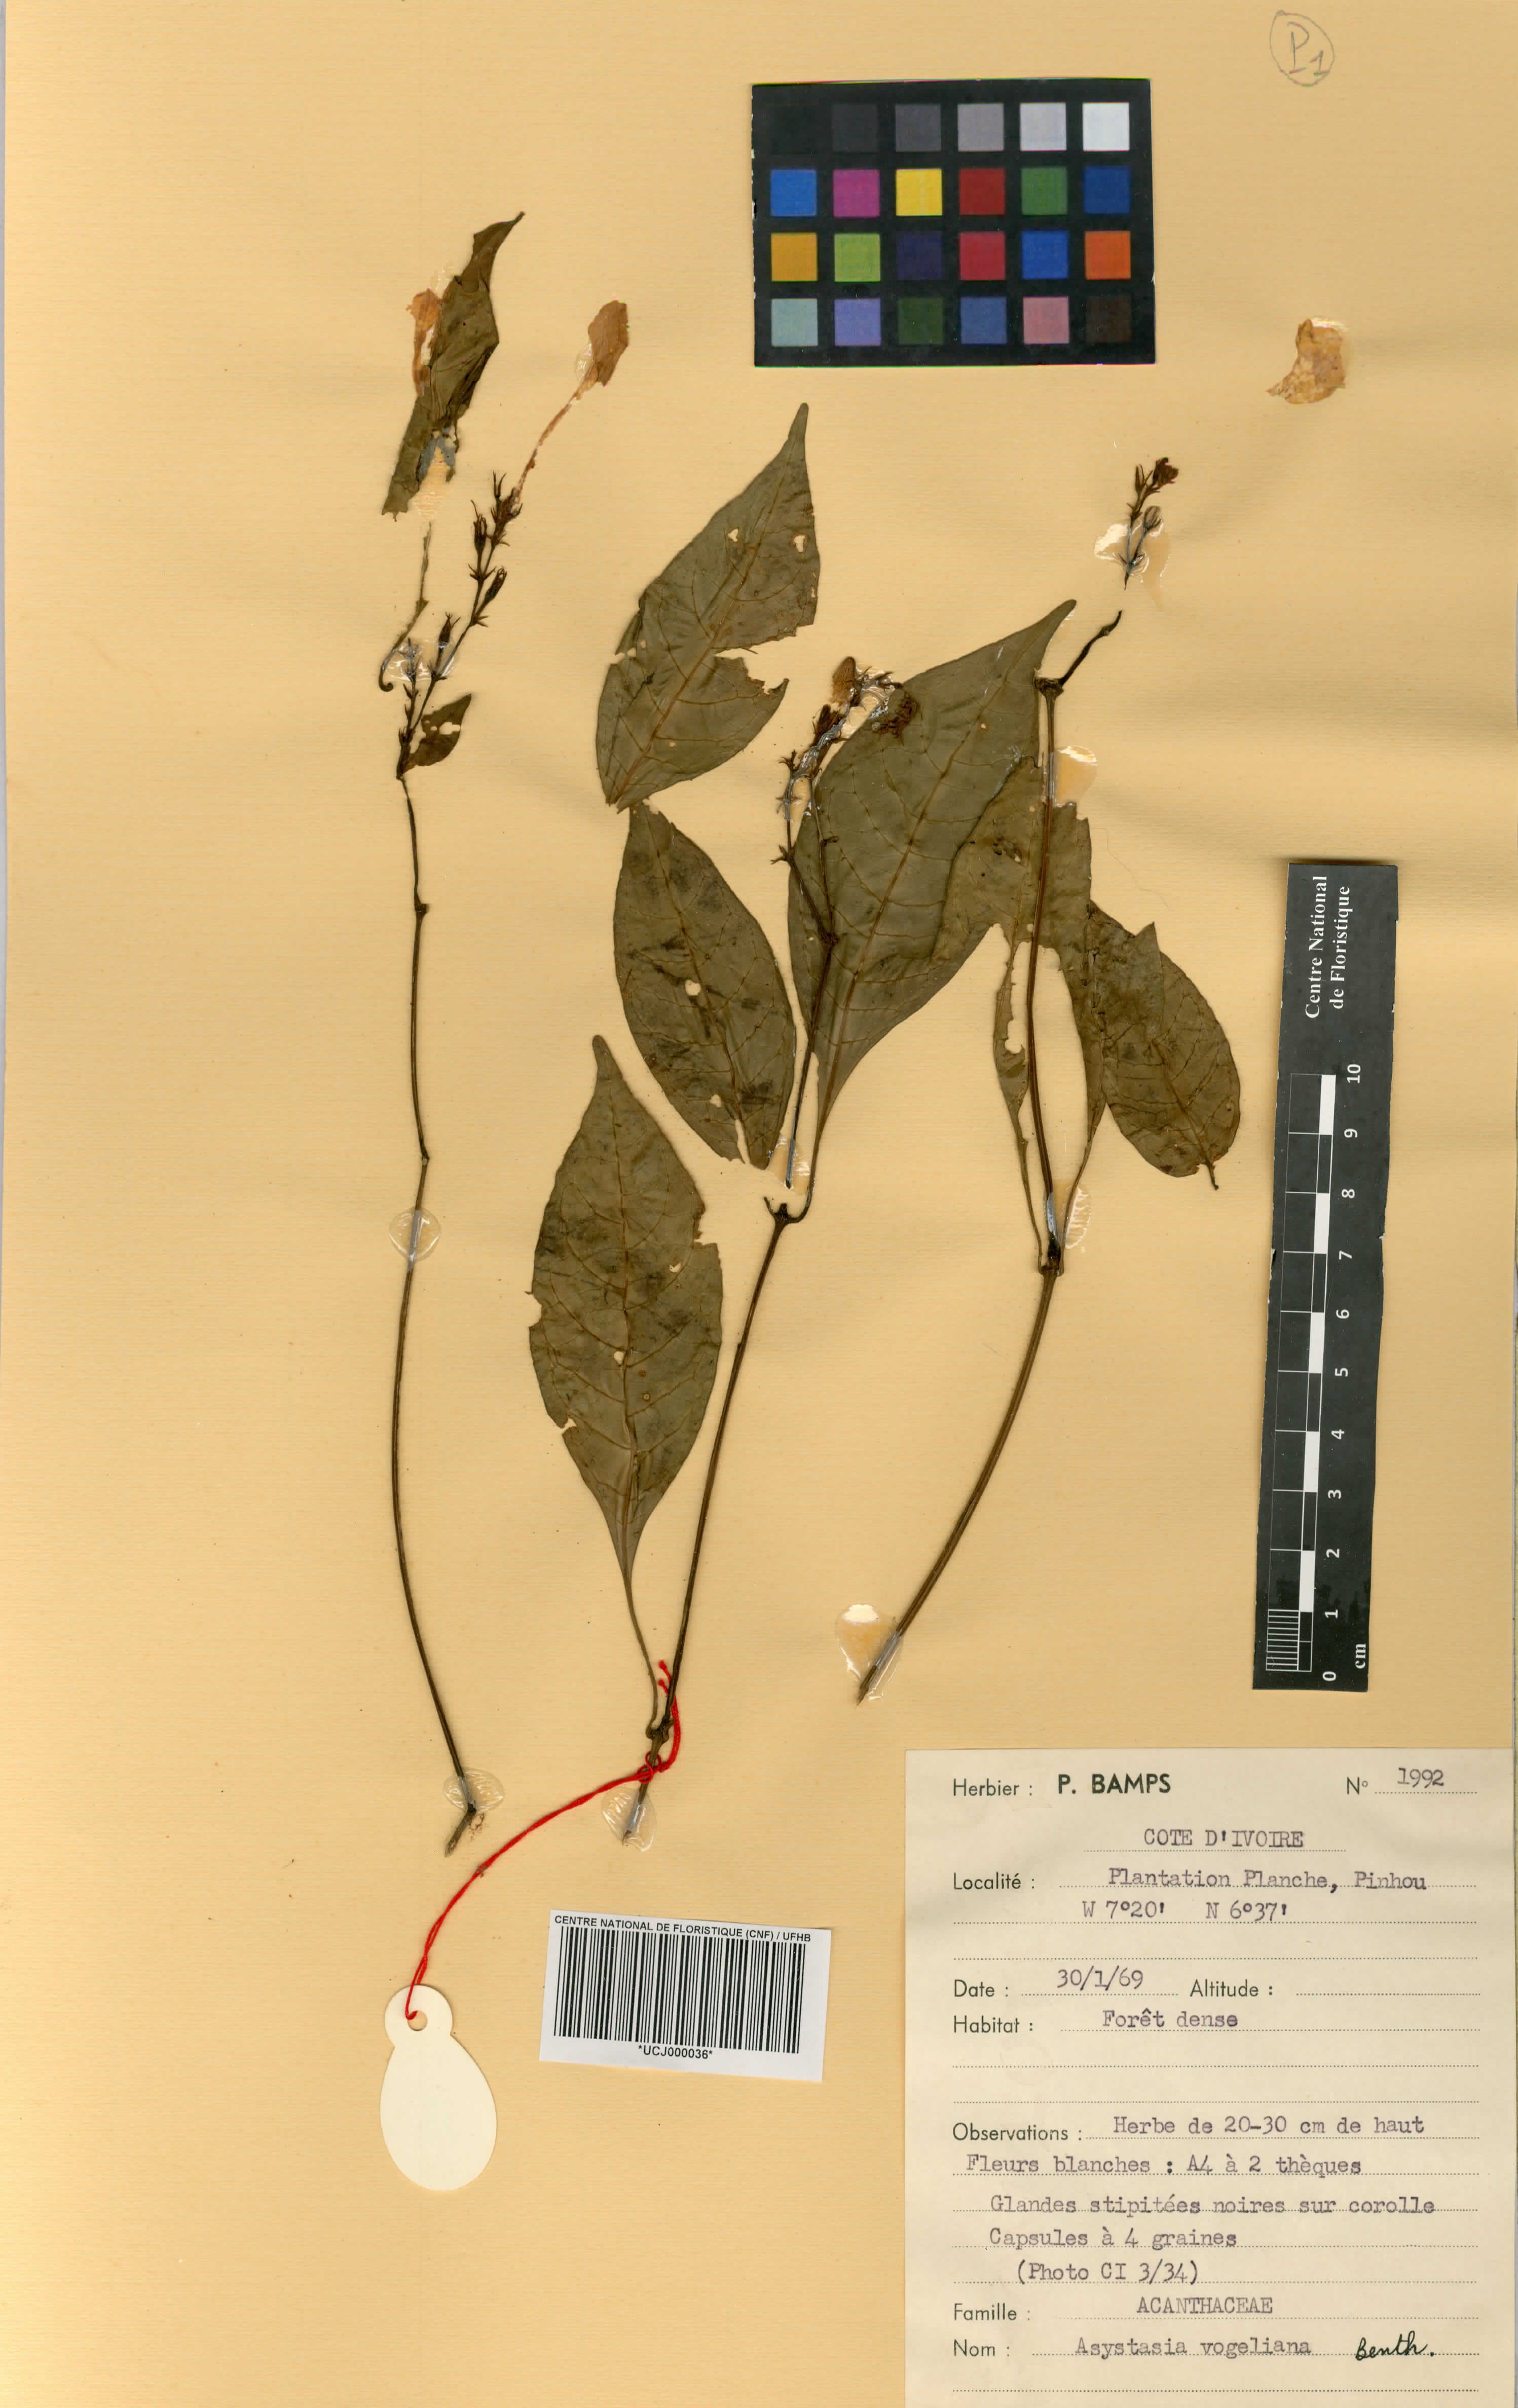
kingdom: Plantae
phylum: Tracheophyta
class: Magnoliopsida
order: Lamiales
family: Acanthaceae
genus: Asystasia
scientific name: Asystasia vogeliana
